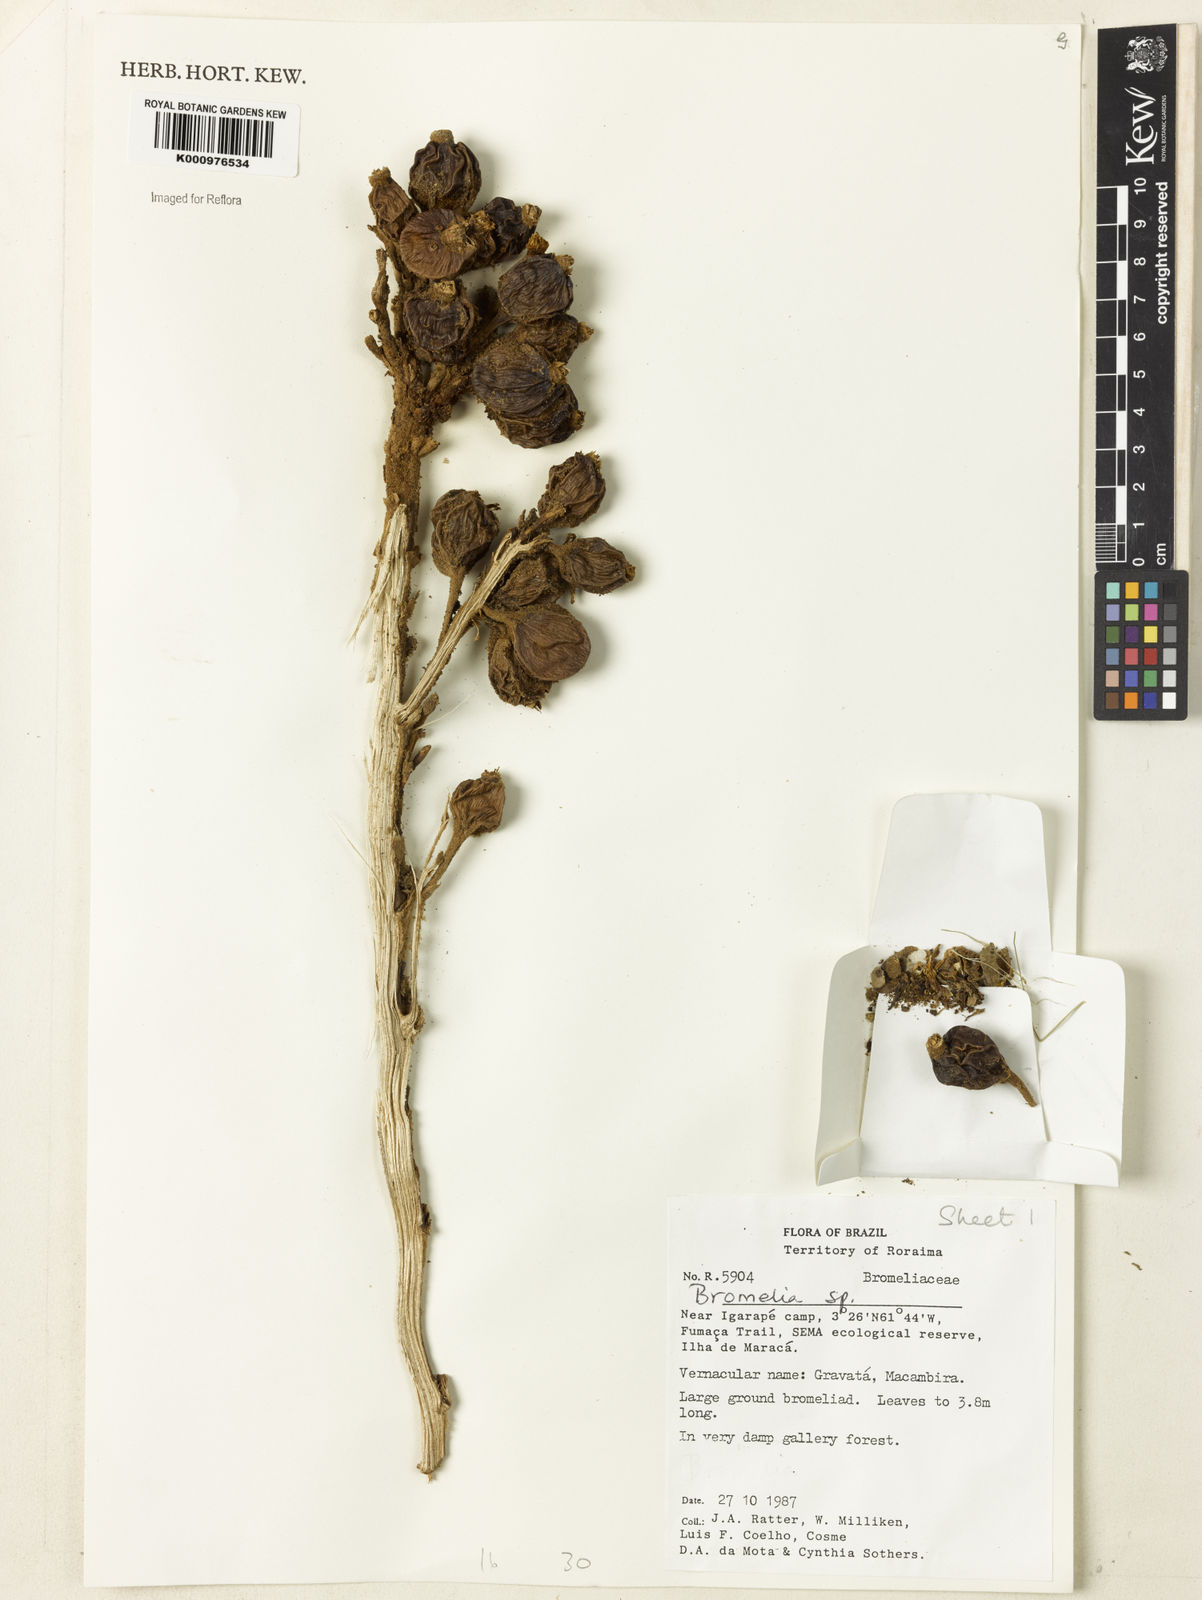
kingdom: Plantae
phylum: Tracheophyta
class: Liliopsida
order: Poales
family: Bromeliaceae
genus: Bromelia
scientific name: Bromelia goeldiana
